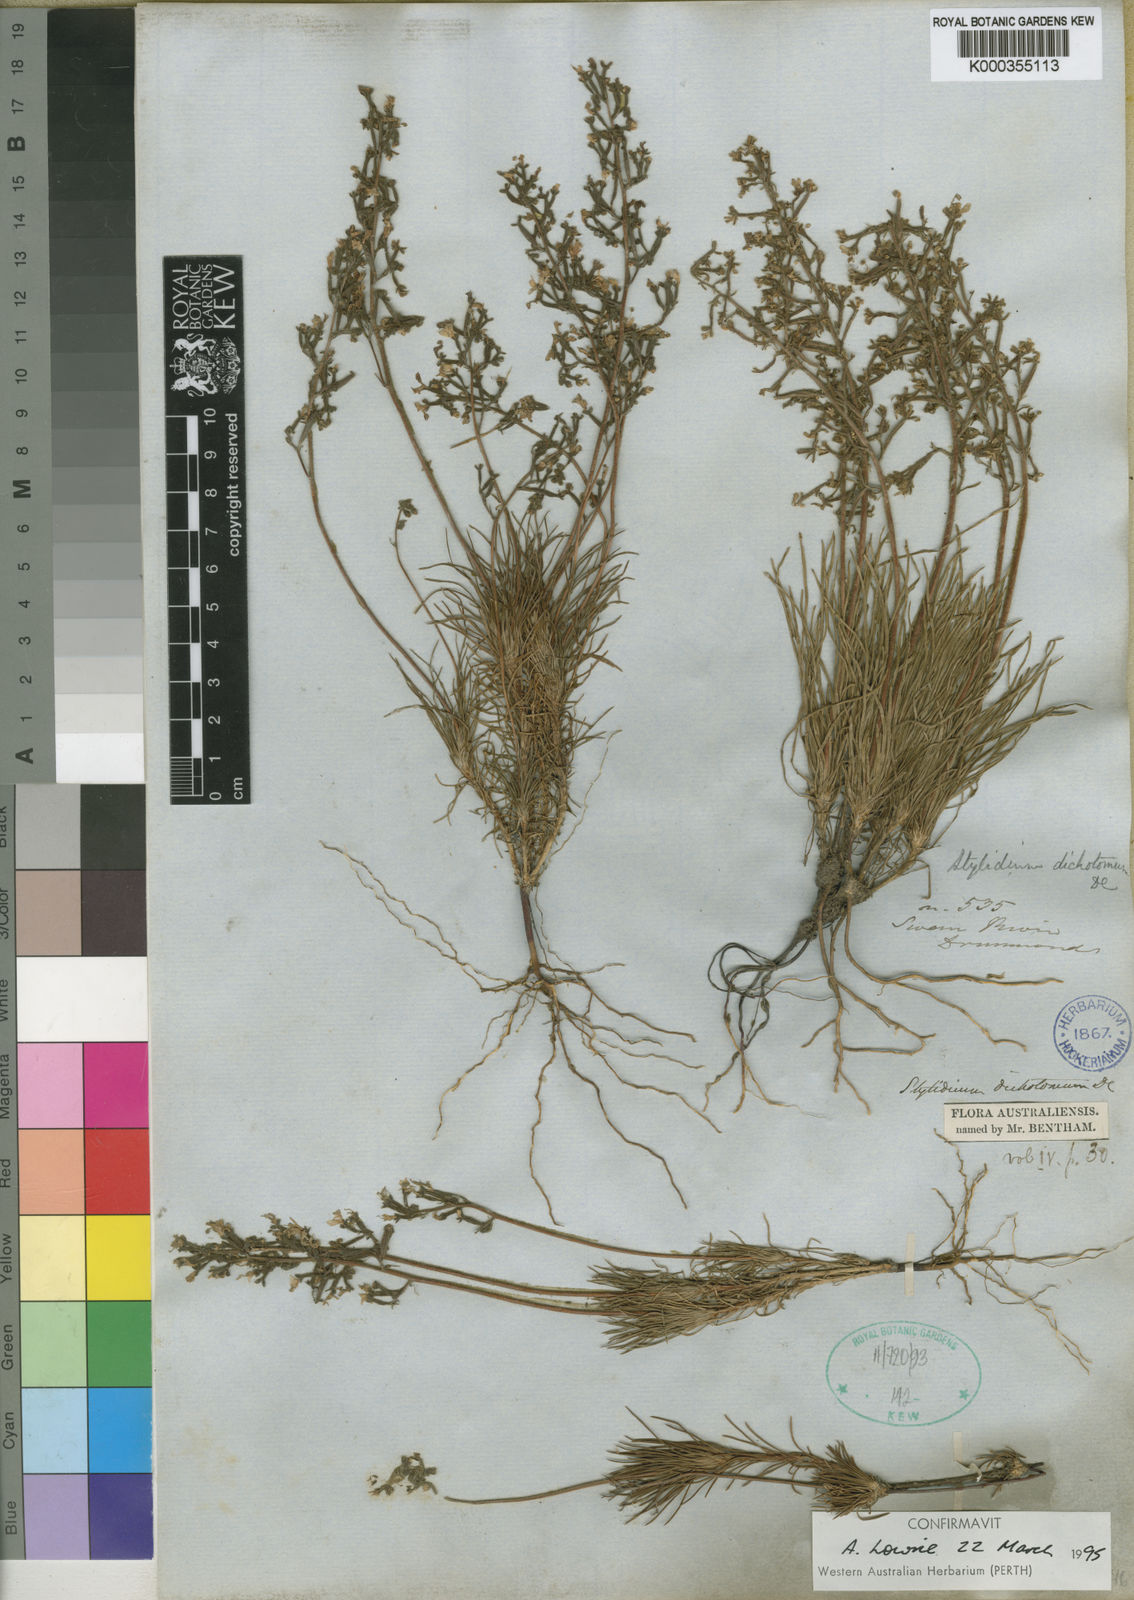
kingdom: Plantae
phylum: Tracheophyta
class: Magnoliopsida
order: Asterales
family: Stylidiaceae
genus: Stylidium
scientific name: Stylidium dichotomum
